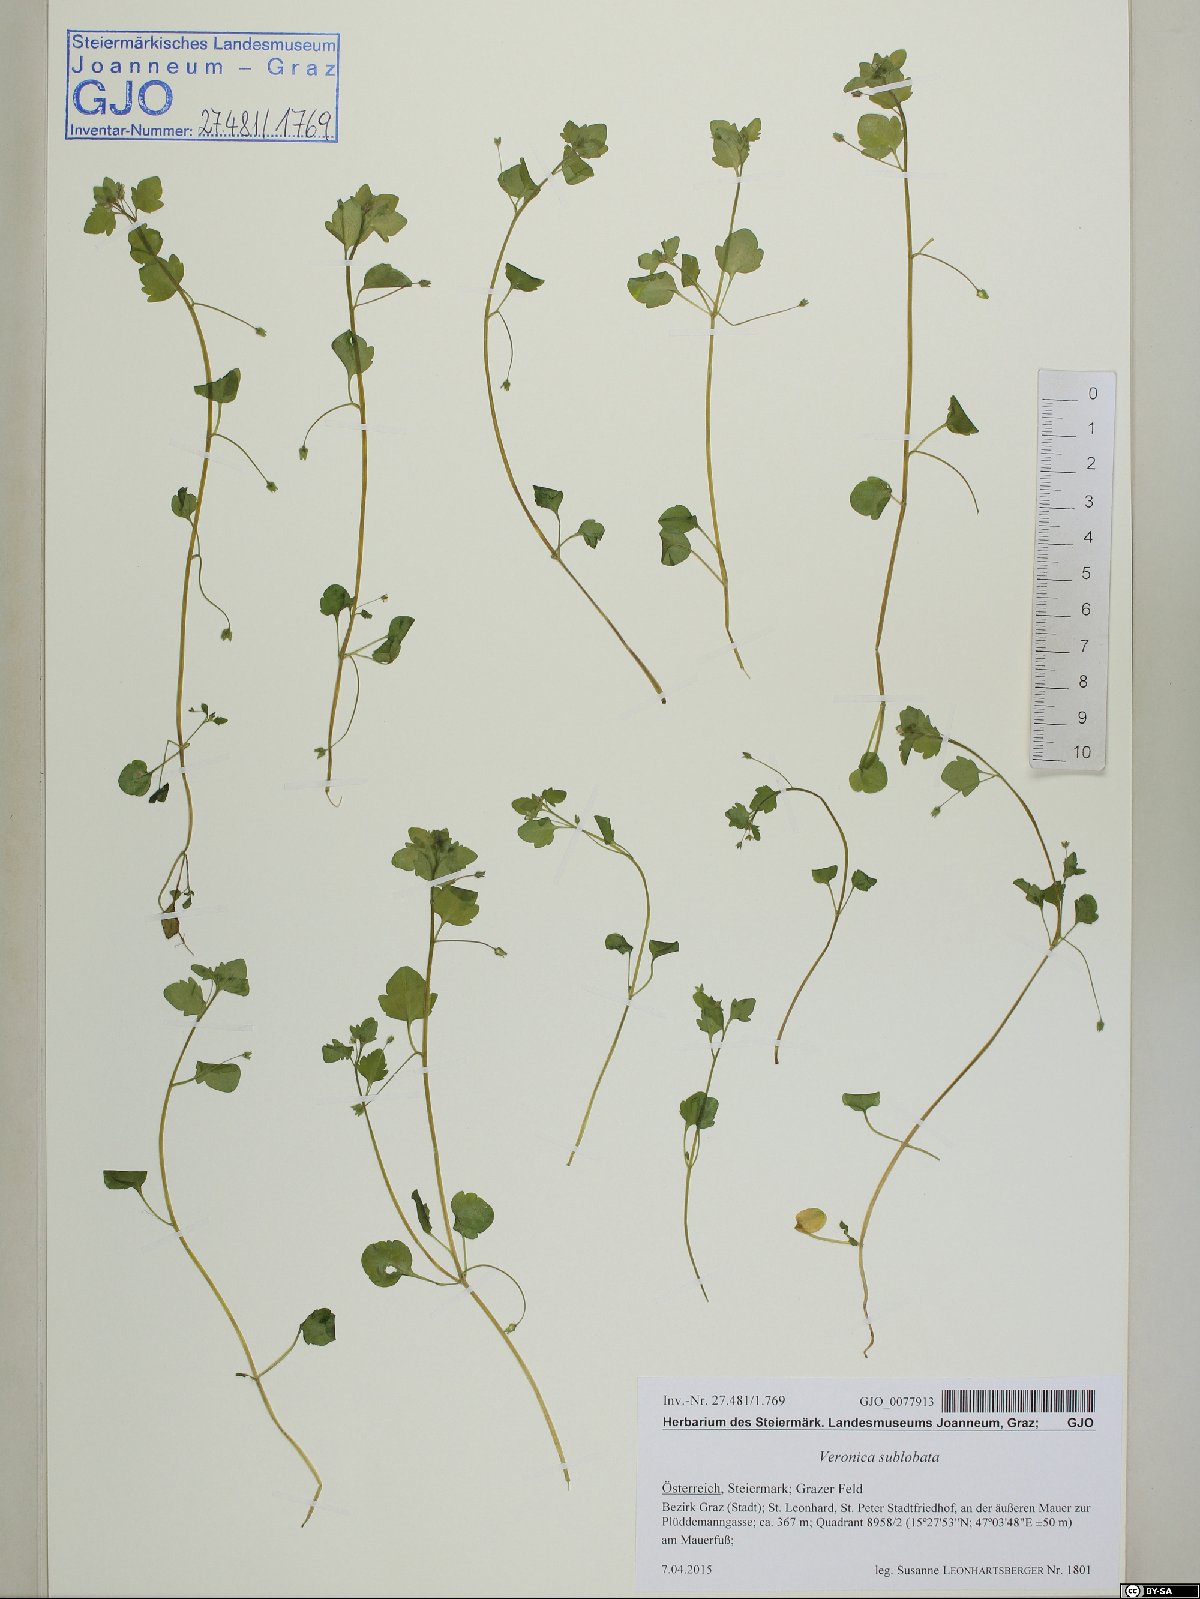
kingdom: Plantae
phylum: Tracheophyta
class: Magnoliopsida
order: Lamiales
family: Plantaginaceae
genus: Veronica
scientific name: Veronica sublobata
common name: False ivy-leaved speedwell
